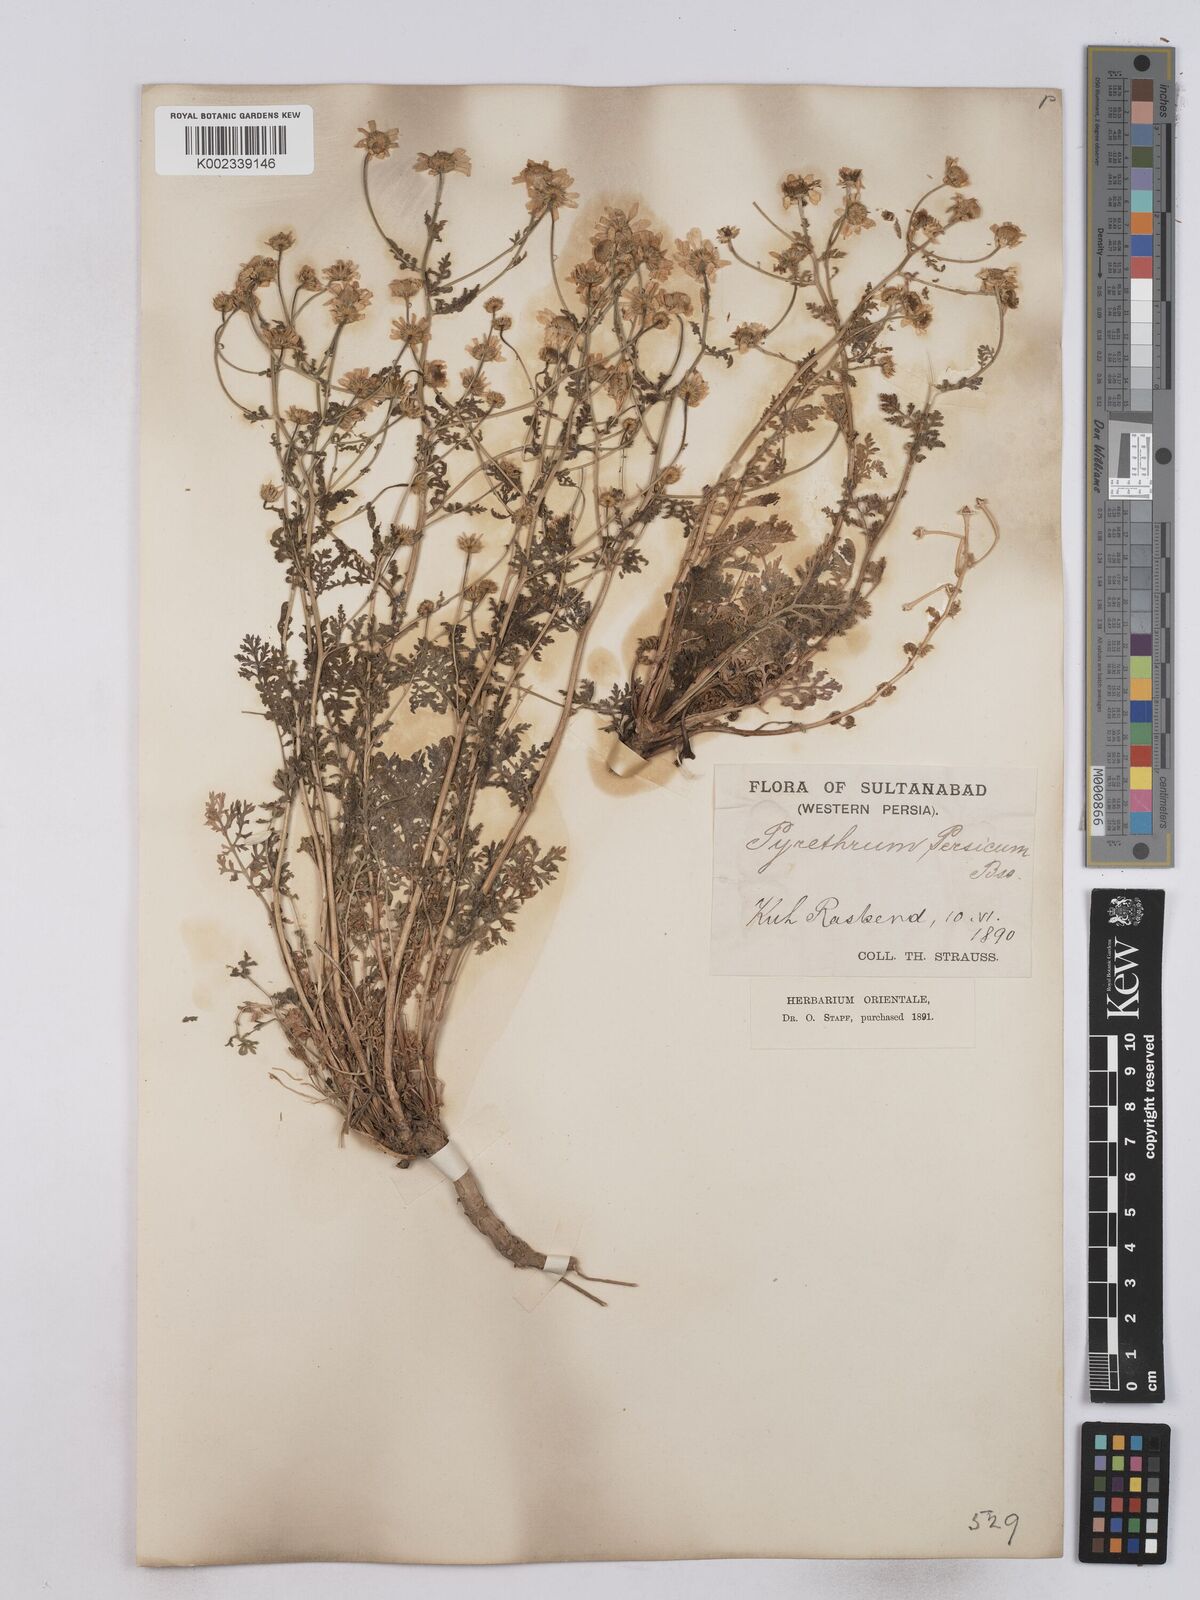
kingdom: Plantae
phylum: Tracheophyta
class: Magnoliopsida
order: Asterales
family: Asteraceae
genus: Tanacetum
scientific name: Tanacetum partheniifolium
